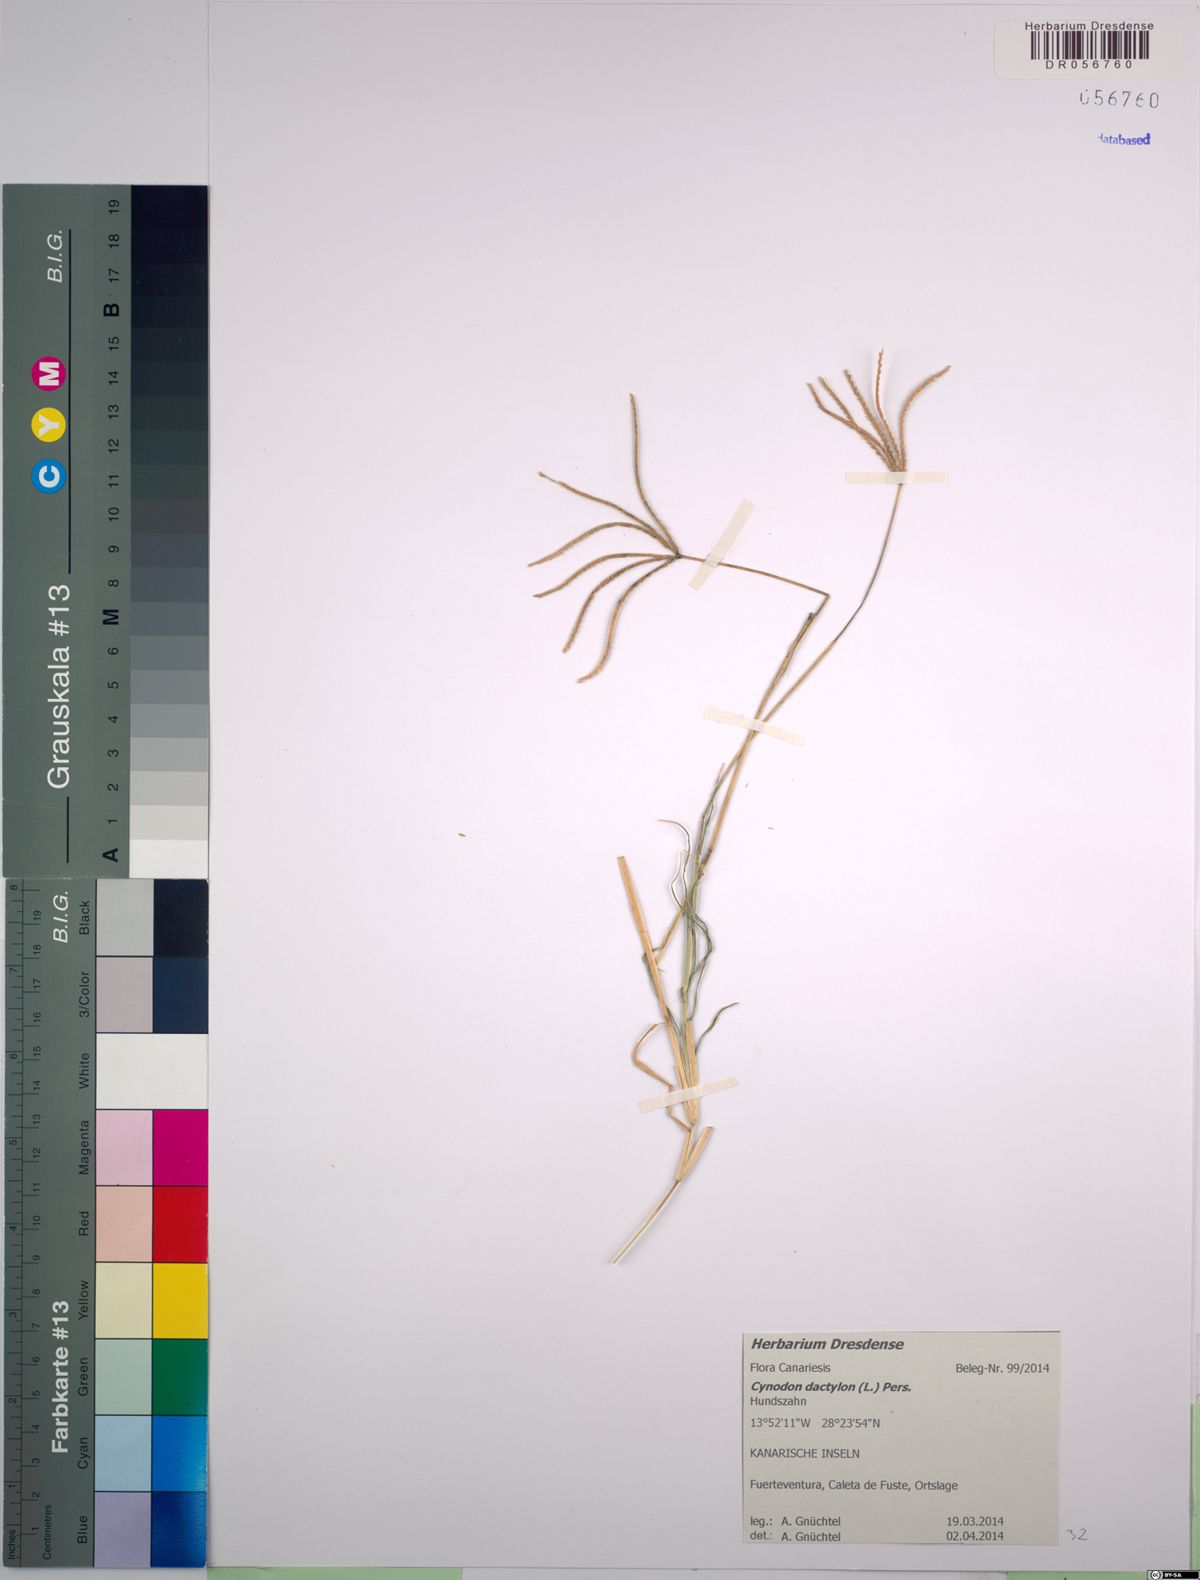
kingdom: Plantae
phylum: Tracheophyta
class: Liliopsida
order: Poales
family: Poaceae
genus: Cynodon
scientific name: Cynodon dactylon
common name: Bermuda grass
